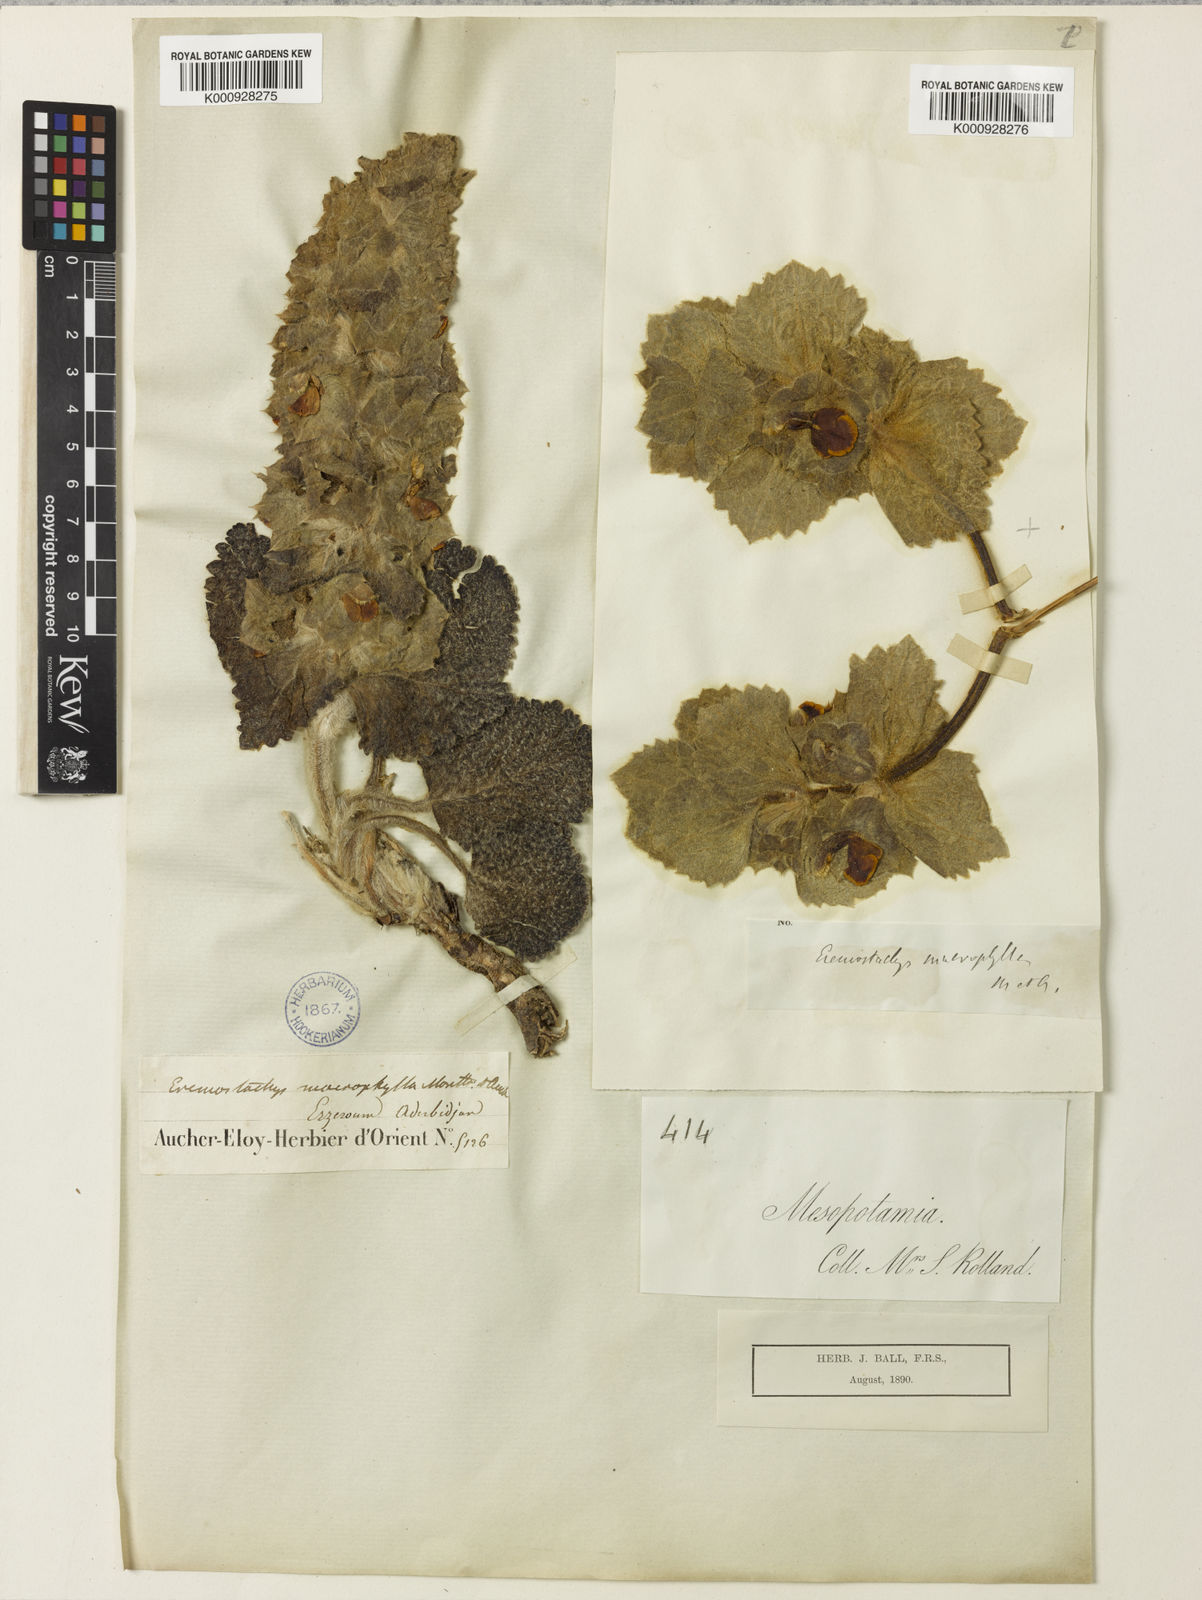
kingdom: Plantae
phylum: Tracheophyta
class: Magnoliopsida
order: Lamiales
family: Lamiaceae
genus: Phlomoides
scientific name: Phlomoides
